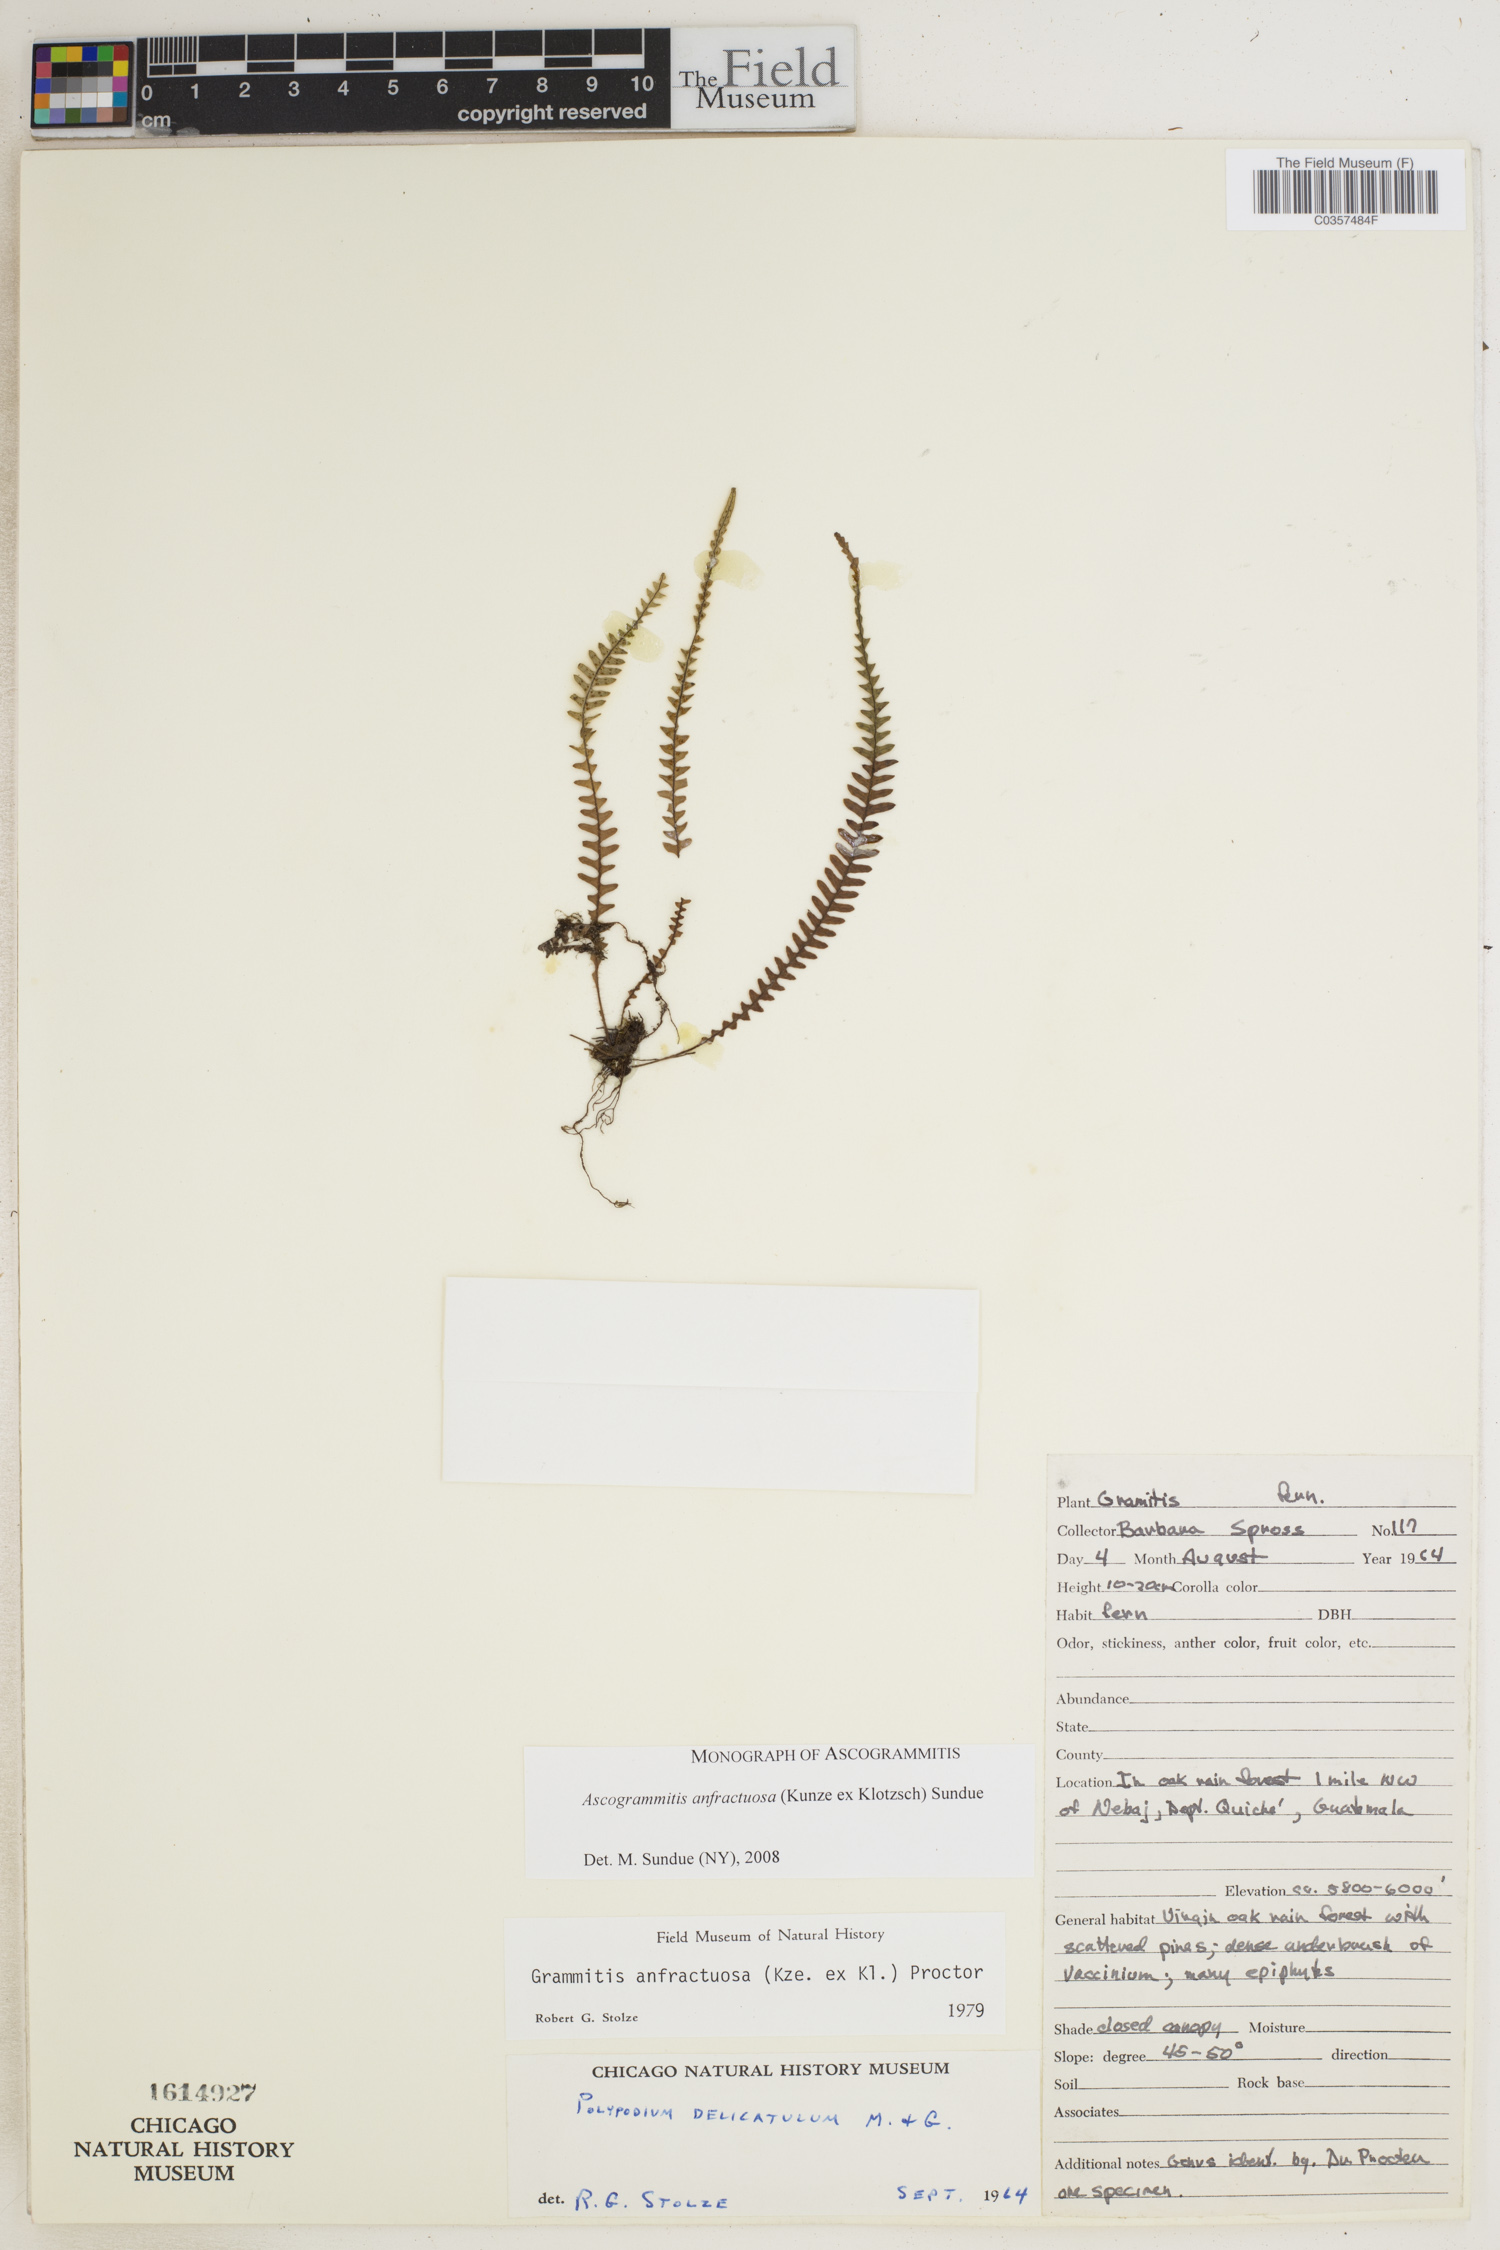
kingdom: Plantae
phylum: Tracheophyta
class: Polypodiopsida
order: Polypodiales
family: Polypodiaceae
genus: Ascogrammitis
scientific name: Ascogrammitis anfractuosa
